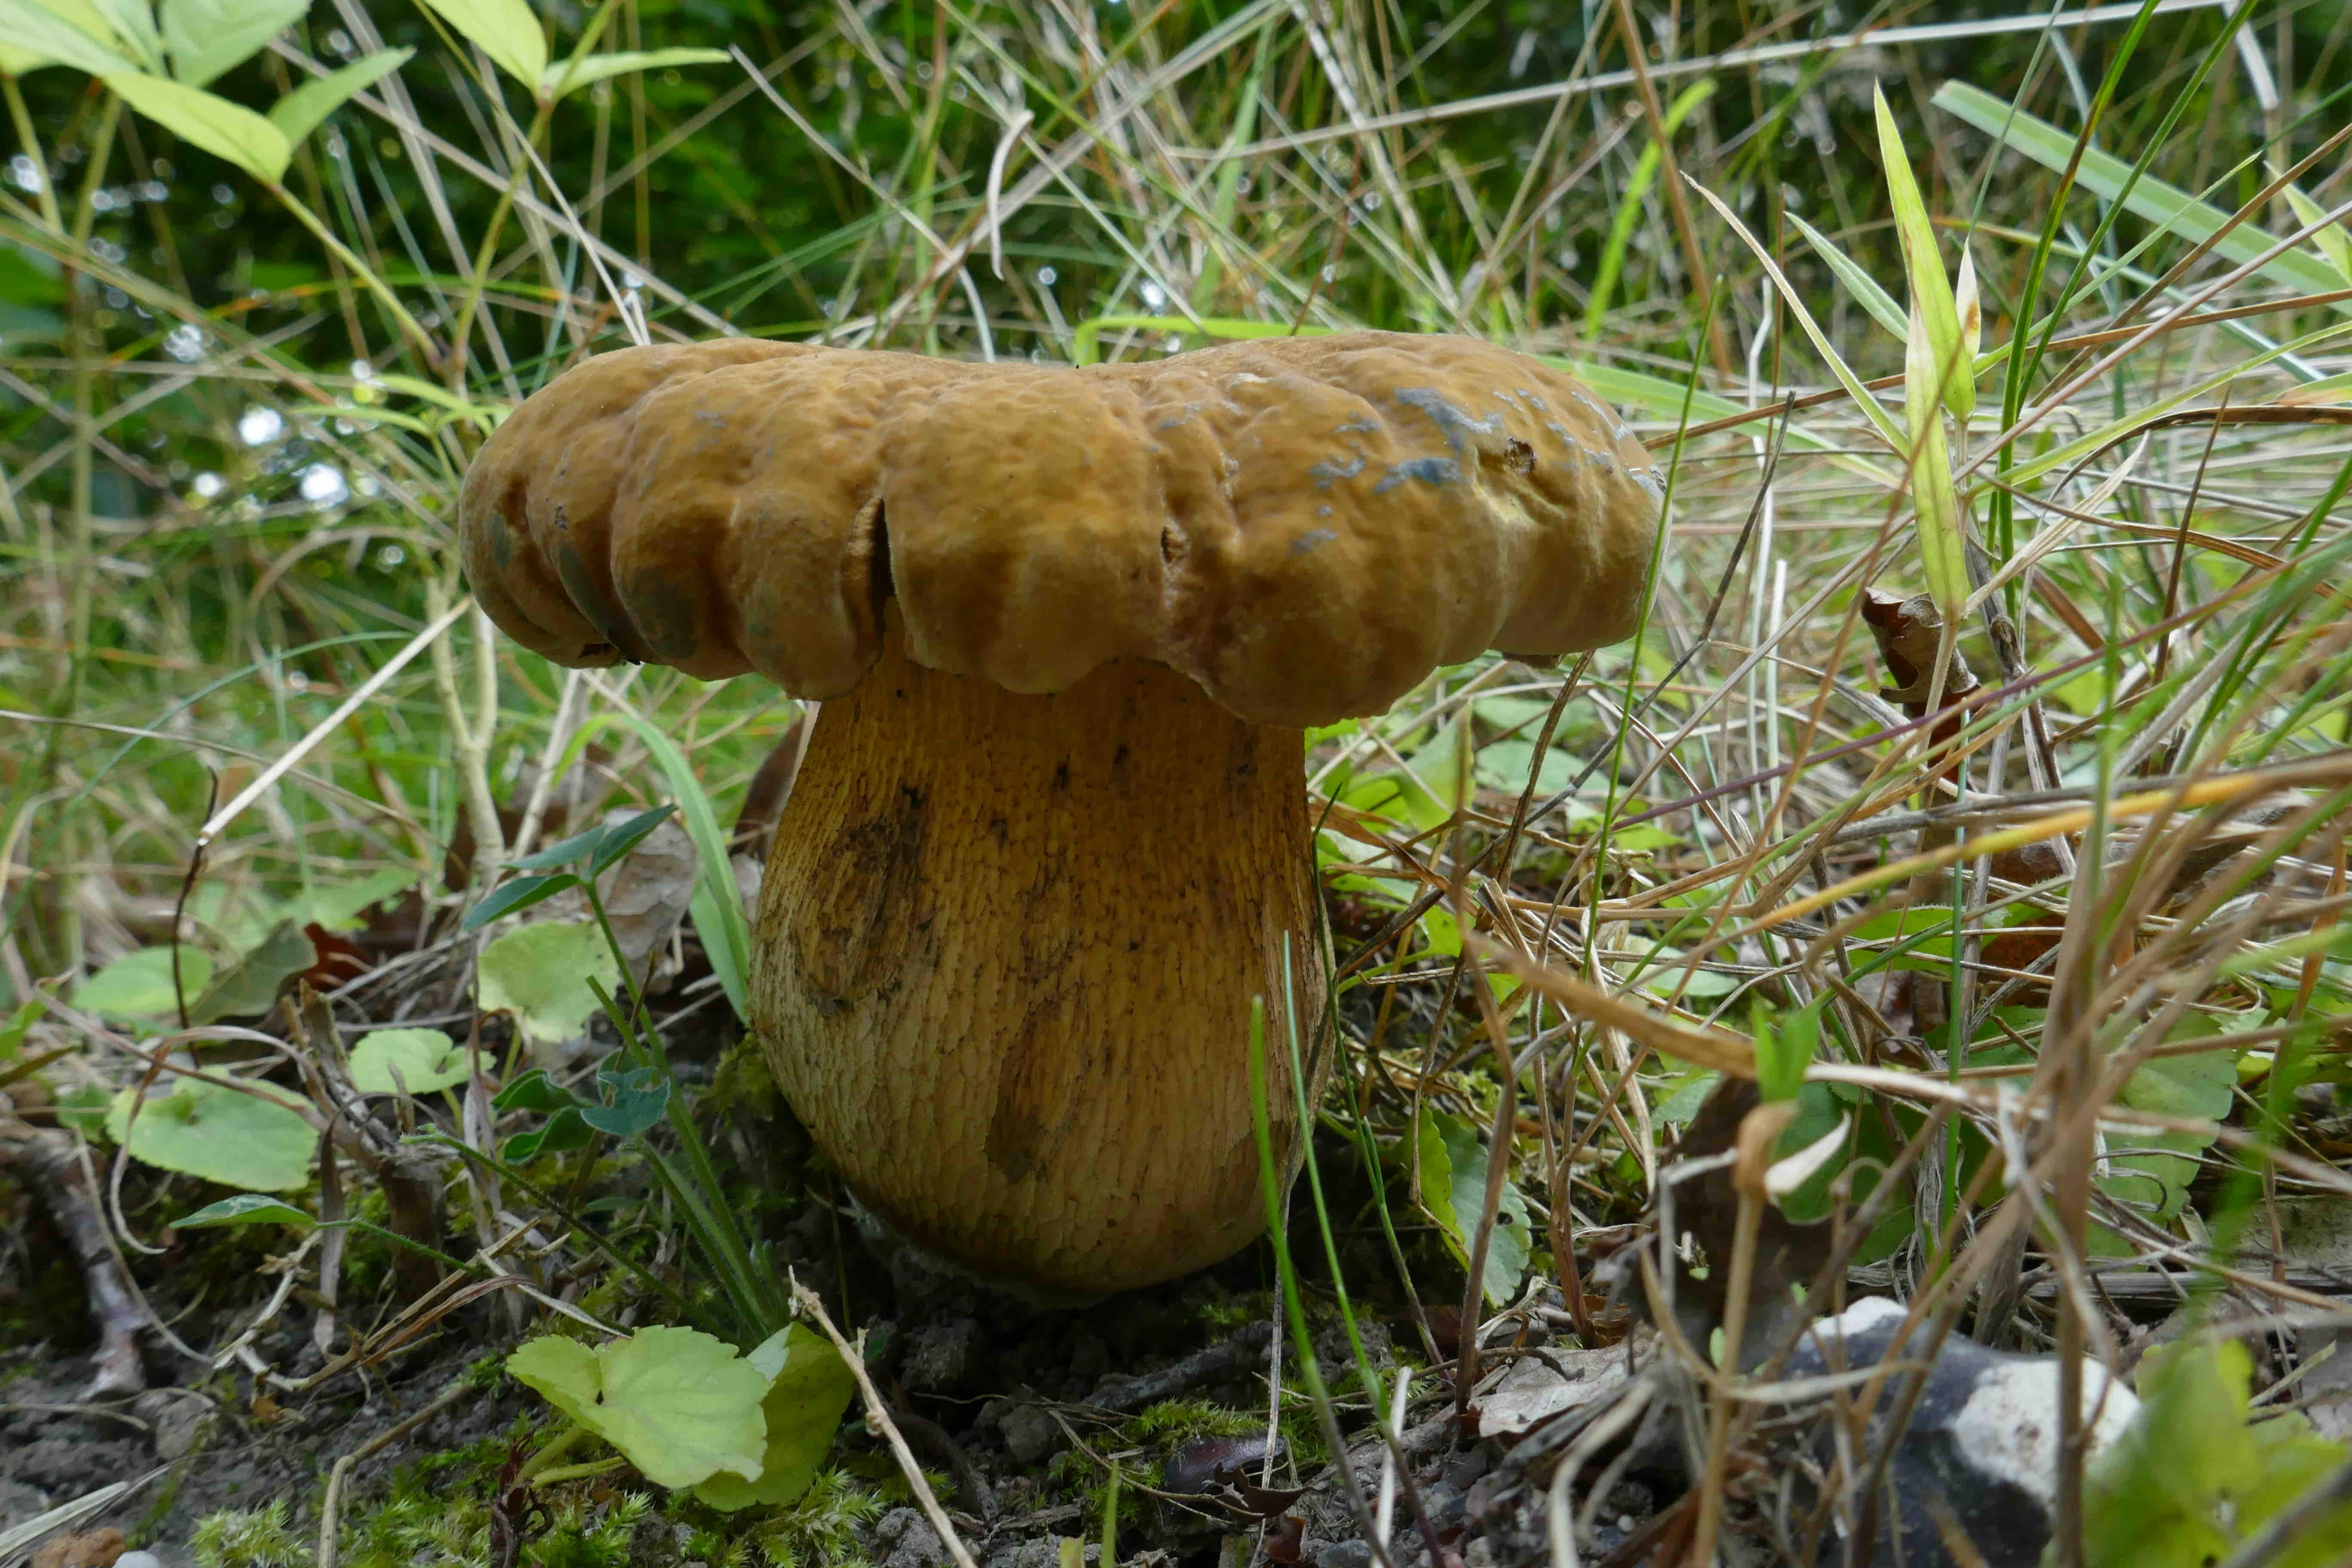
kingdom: Fungi
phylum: Basidiomycota
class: Agaricomycetes
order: Boletales
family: Boletaceae
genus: Suillellus
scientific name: Suillellus luridus
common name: netstokket indigorørhat
